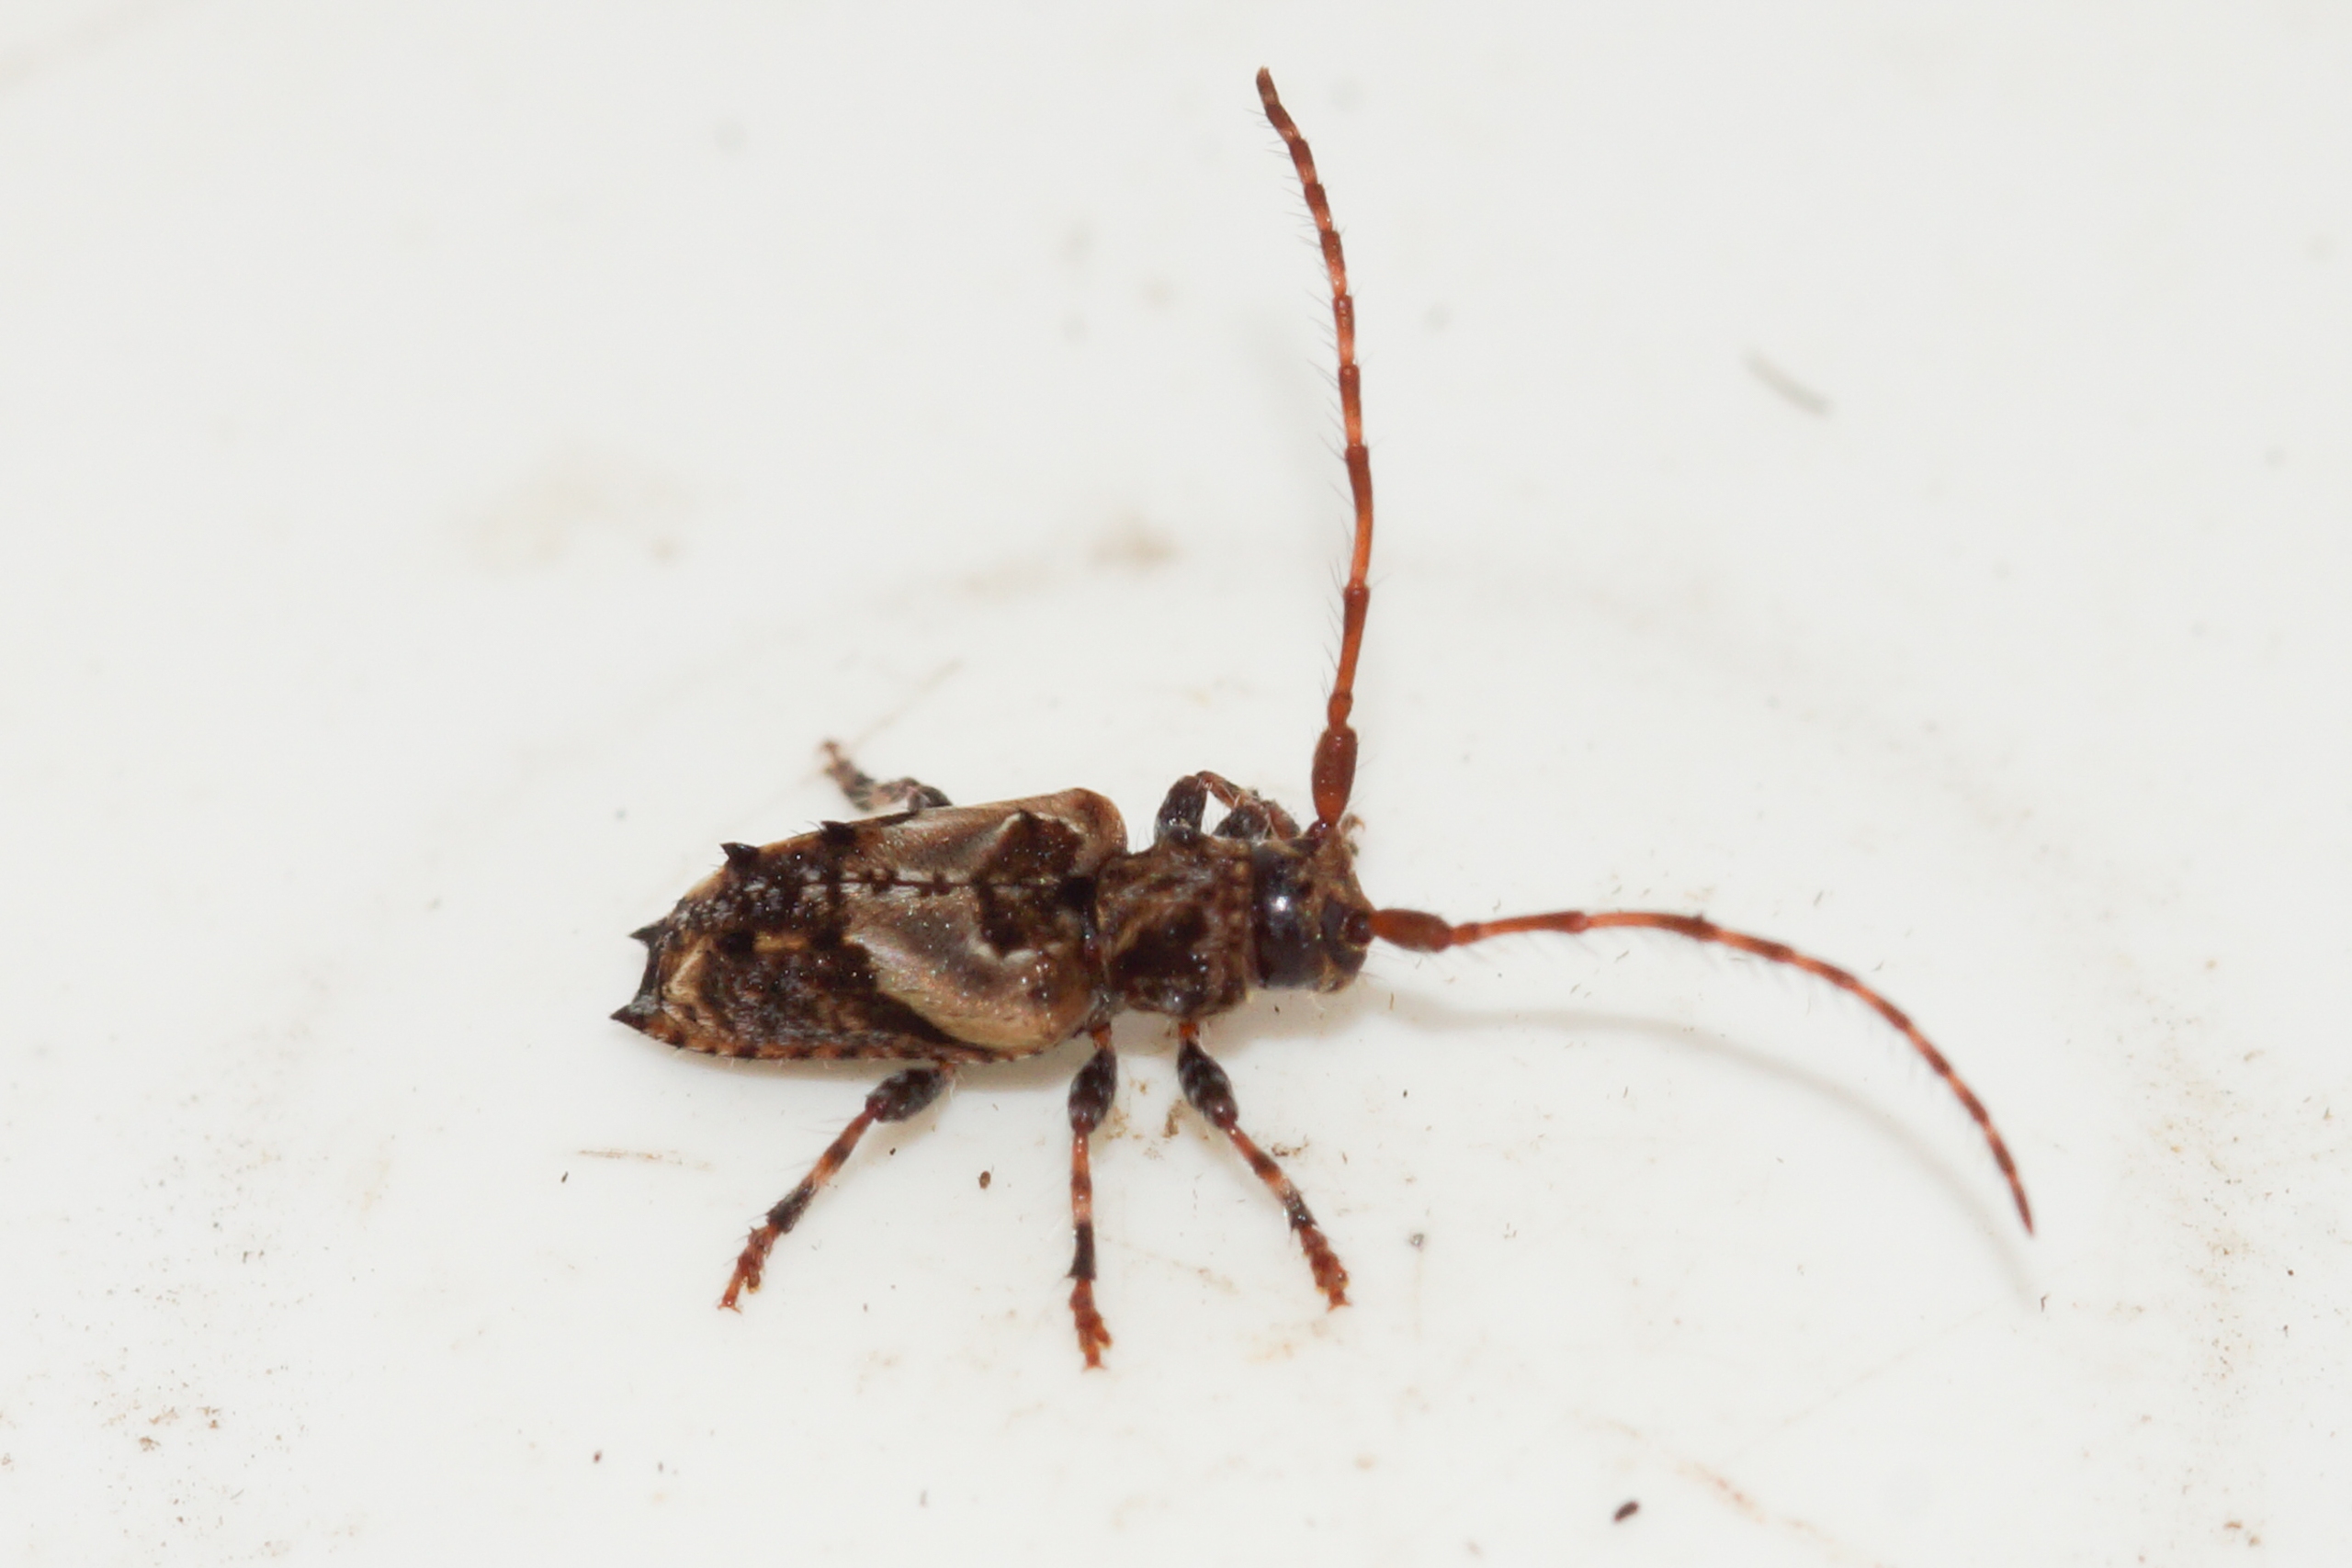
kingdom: Animalia
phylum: Arthropoda
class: Insecta
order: Coleoptera
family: Cerambycidae
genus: Pogonocherus
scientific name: Pogonocherus hispidus
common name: Løvgråbuk
